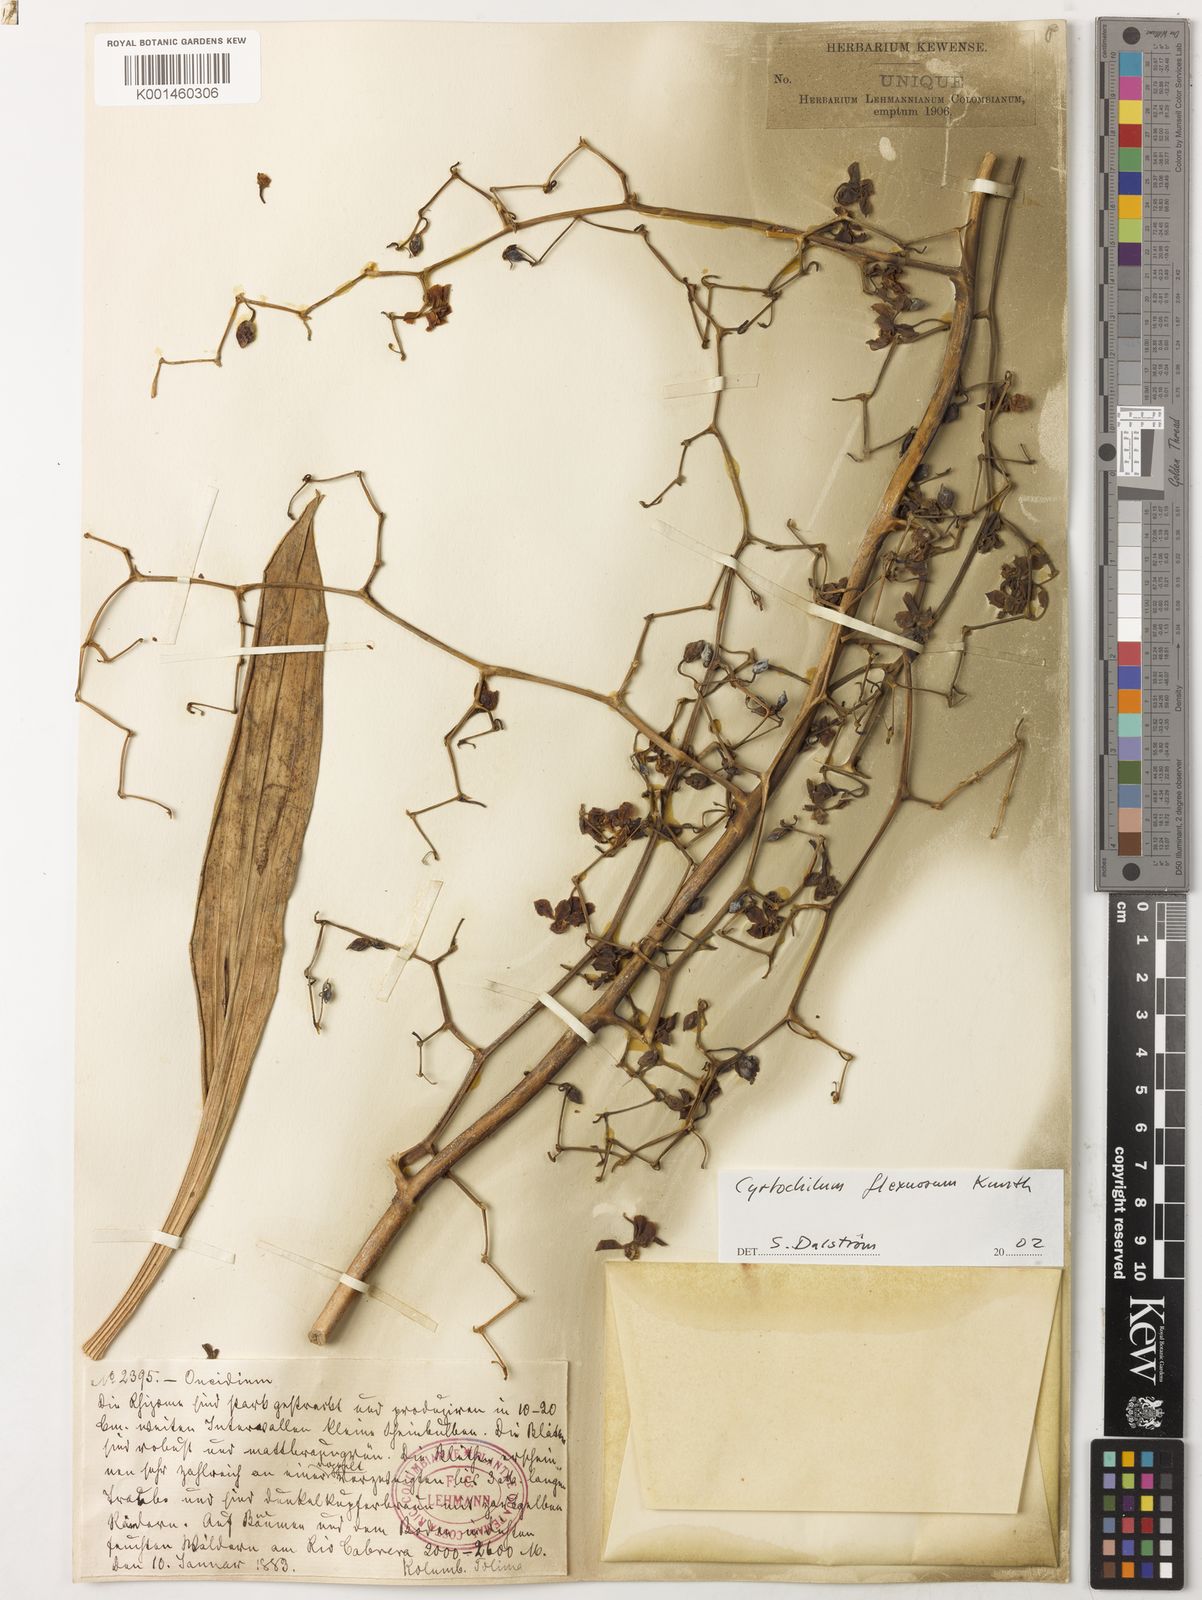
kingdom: Plantae
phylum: Tracheophyta
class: Magnoliopsida
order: Gentianales
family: Rubiaceae
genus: Craterispermum
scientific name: Craterispermum
